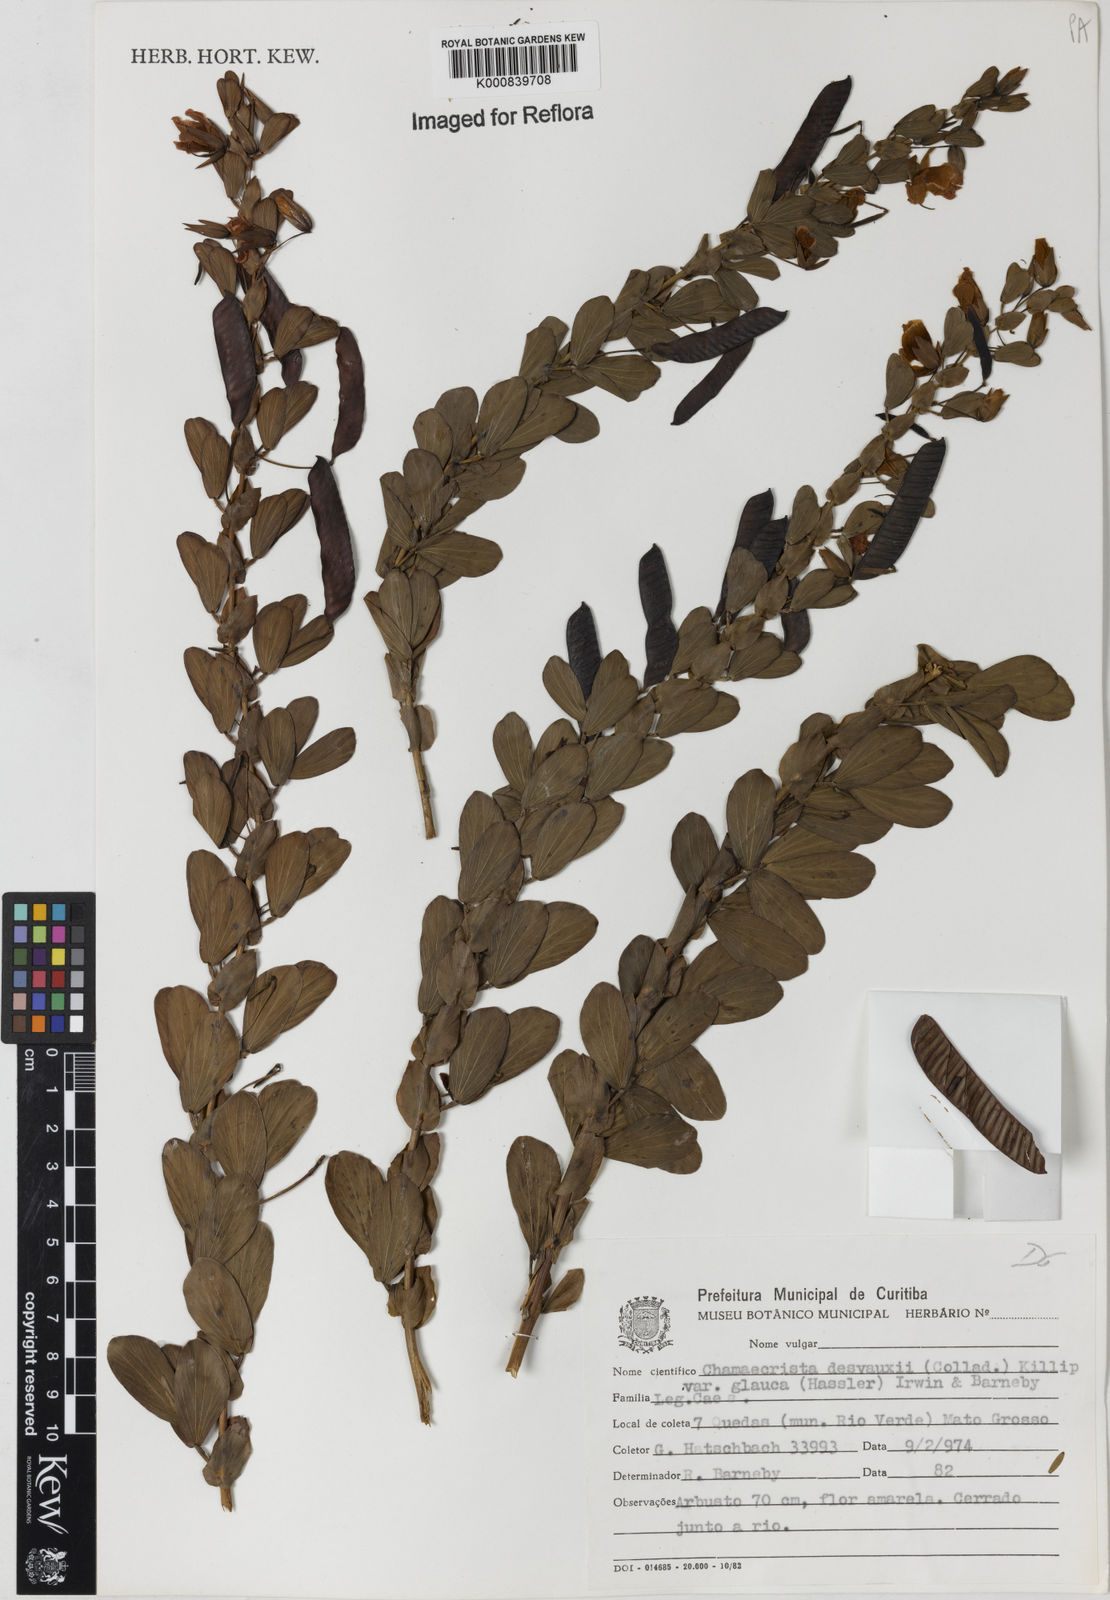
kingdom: Plantae
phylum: Tracheophyta
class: Magnoliopsida
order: Fabales
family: Fabaceae
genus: Chamaecrista
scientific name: Chamaecrista desvauxii
